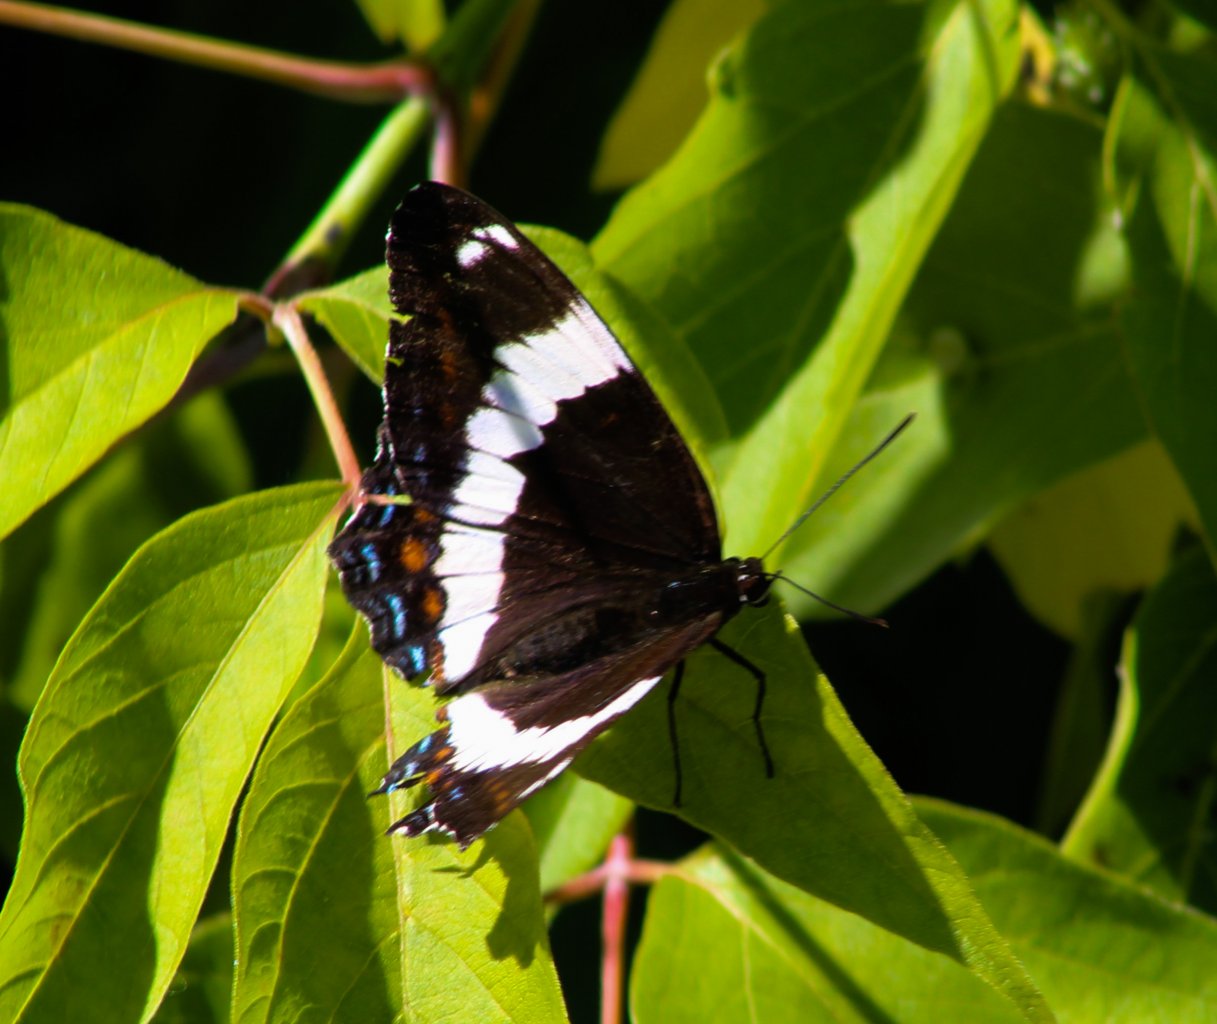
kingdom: Animalia
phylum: Arthropoda
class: Insecta
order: Lepidoptera
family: Nymphalidae
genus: Limenitis
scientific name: Limenitis arthemis
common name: Red-spotted Admiral
